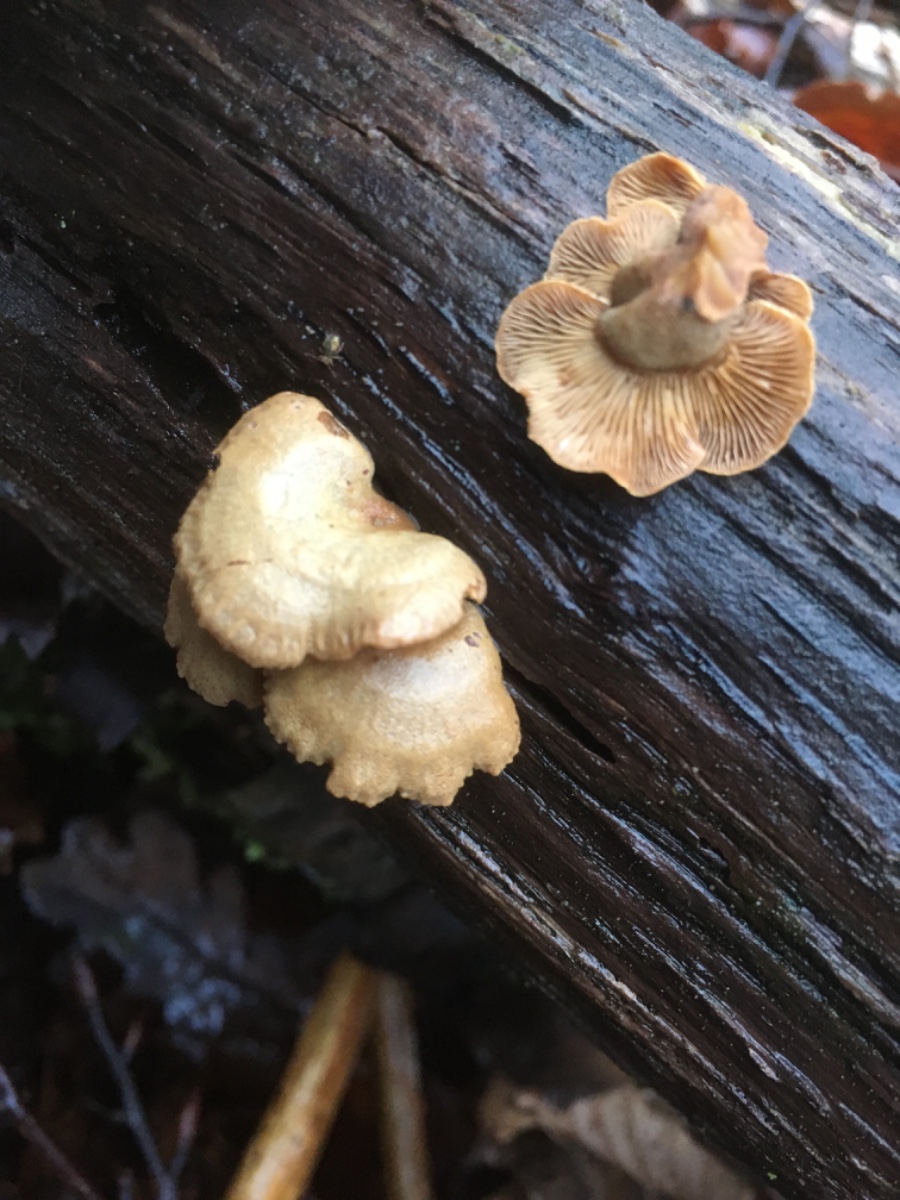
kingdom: Fungi
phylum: Basidiomycota
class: Agaricomycetes
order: Agaricales
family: Mycenaceae
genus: Panellus
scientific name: Panellus stipticus
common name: kliddet epaulethat
